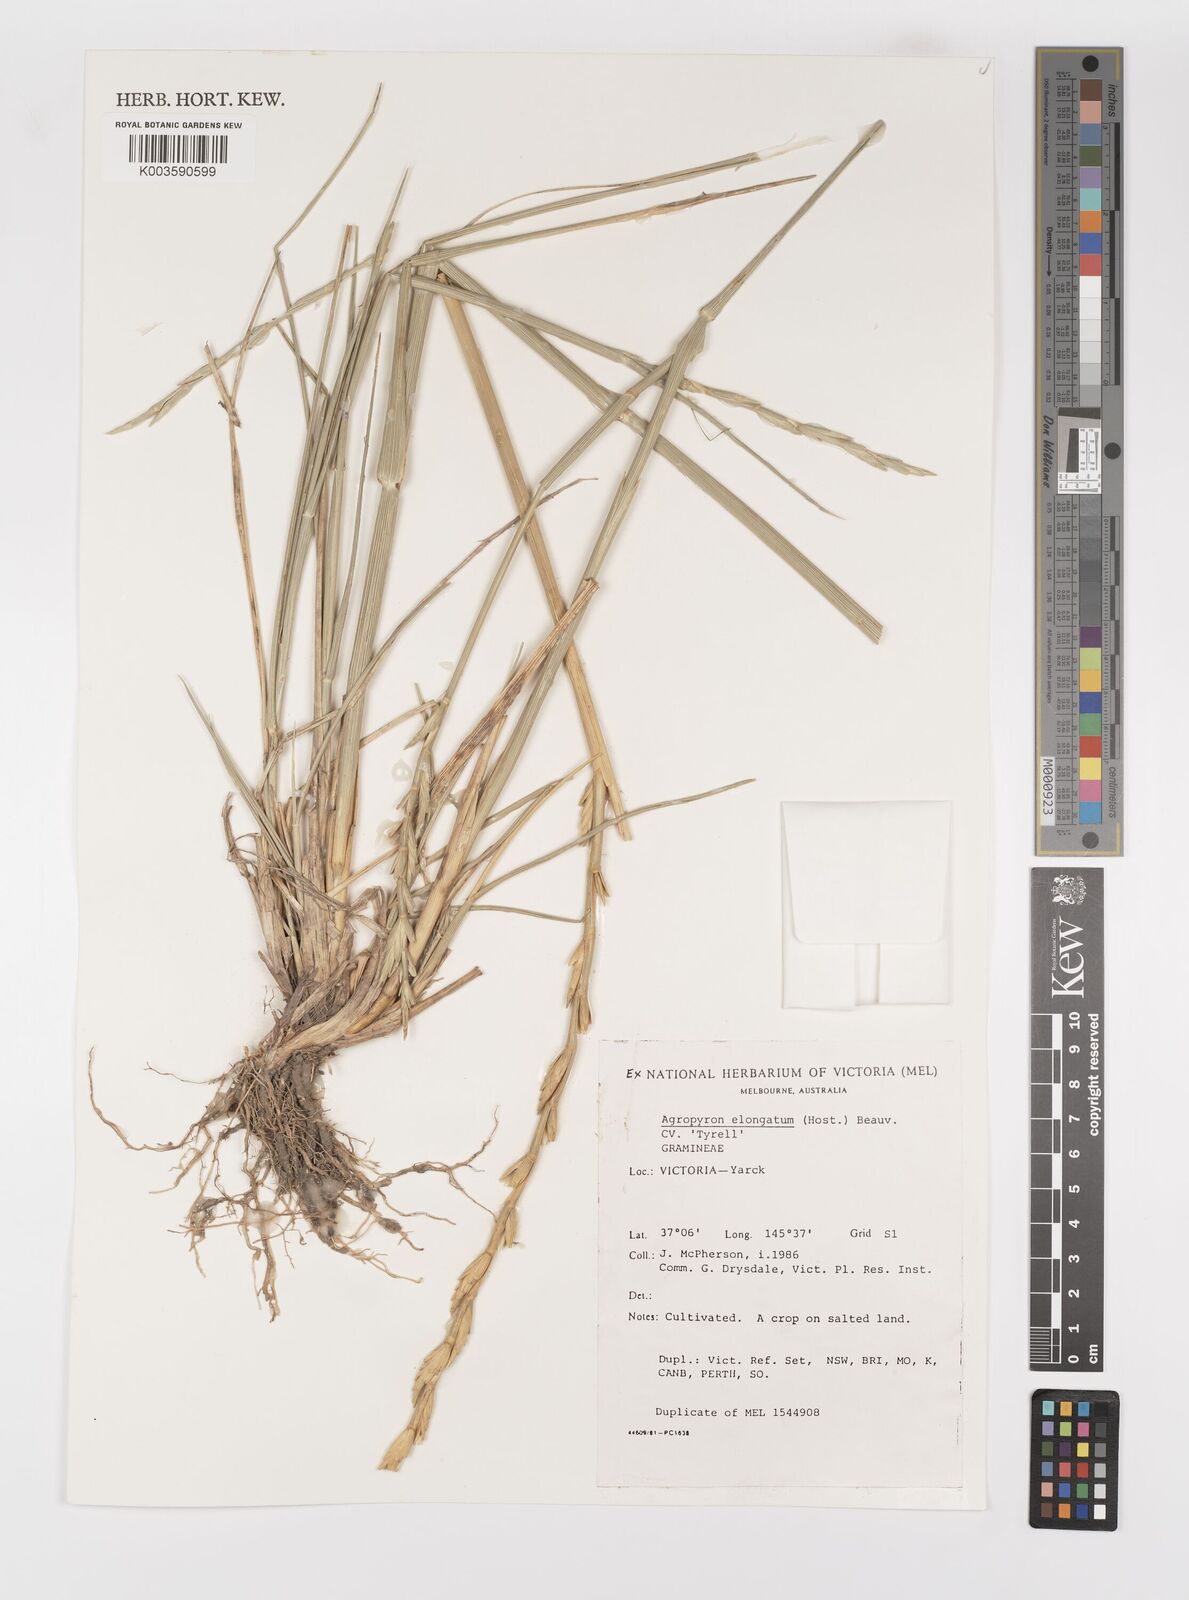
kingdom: Plantae
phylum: Tracheophyta
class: Liliopsida
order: Poales
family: Poaceae
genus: Thinopyrum
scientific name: Thinopyrum elongatum
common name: Tall wheatgrass
